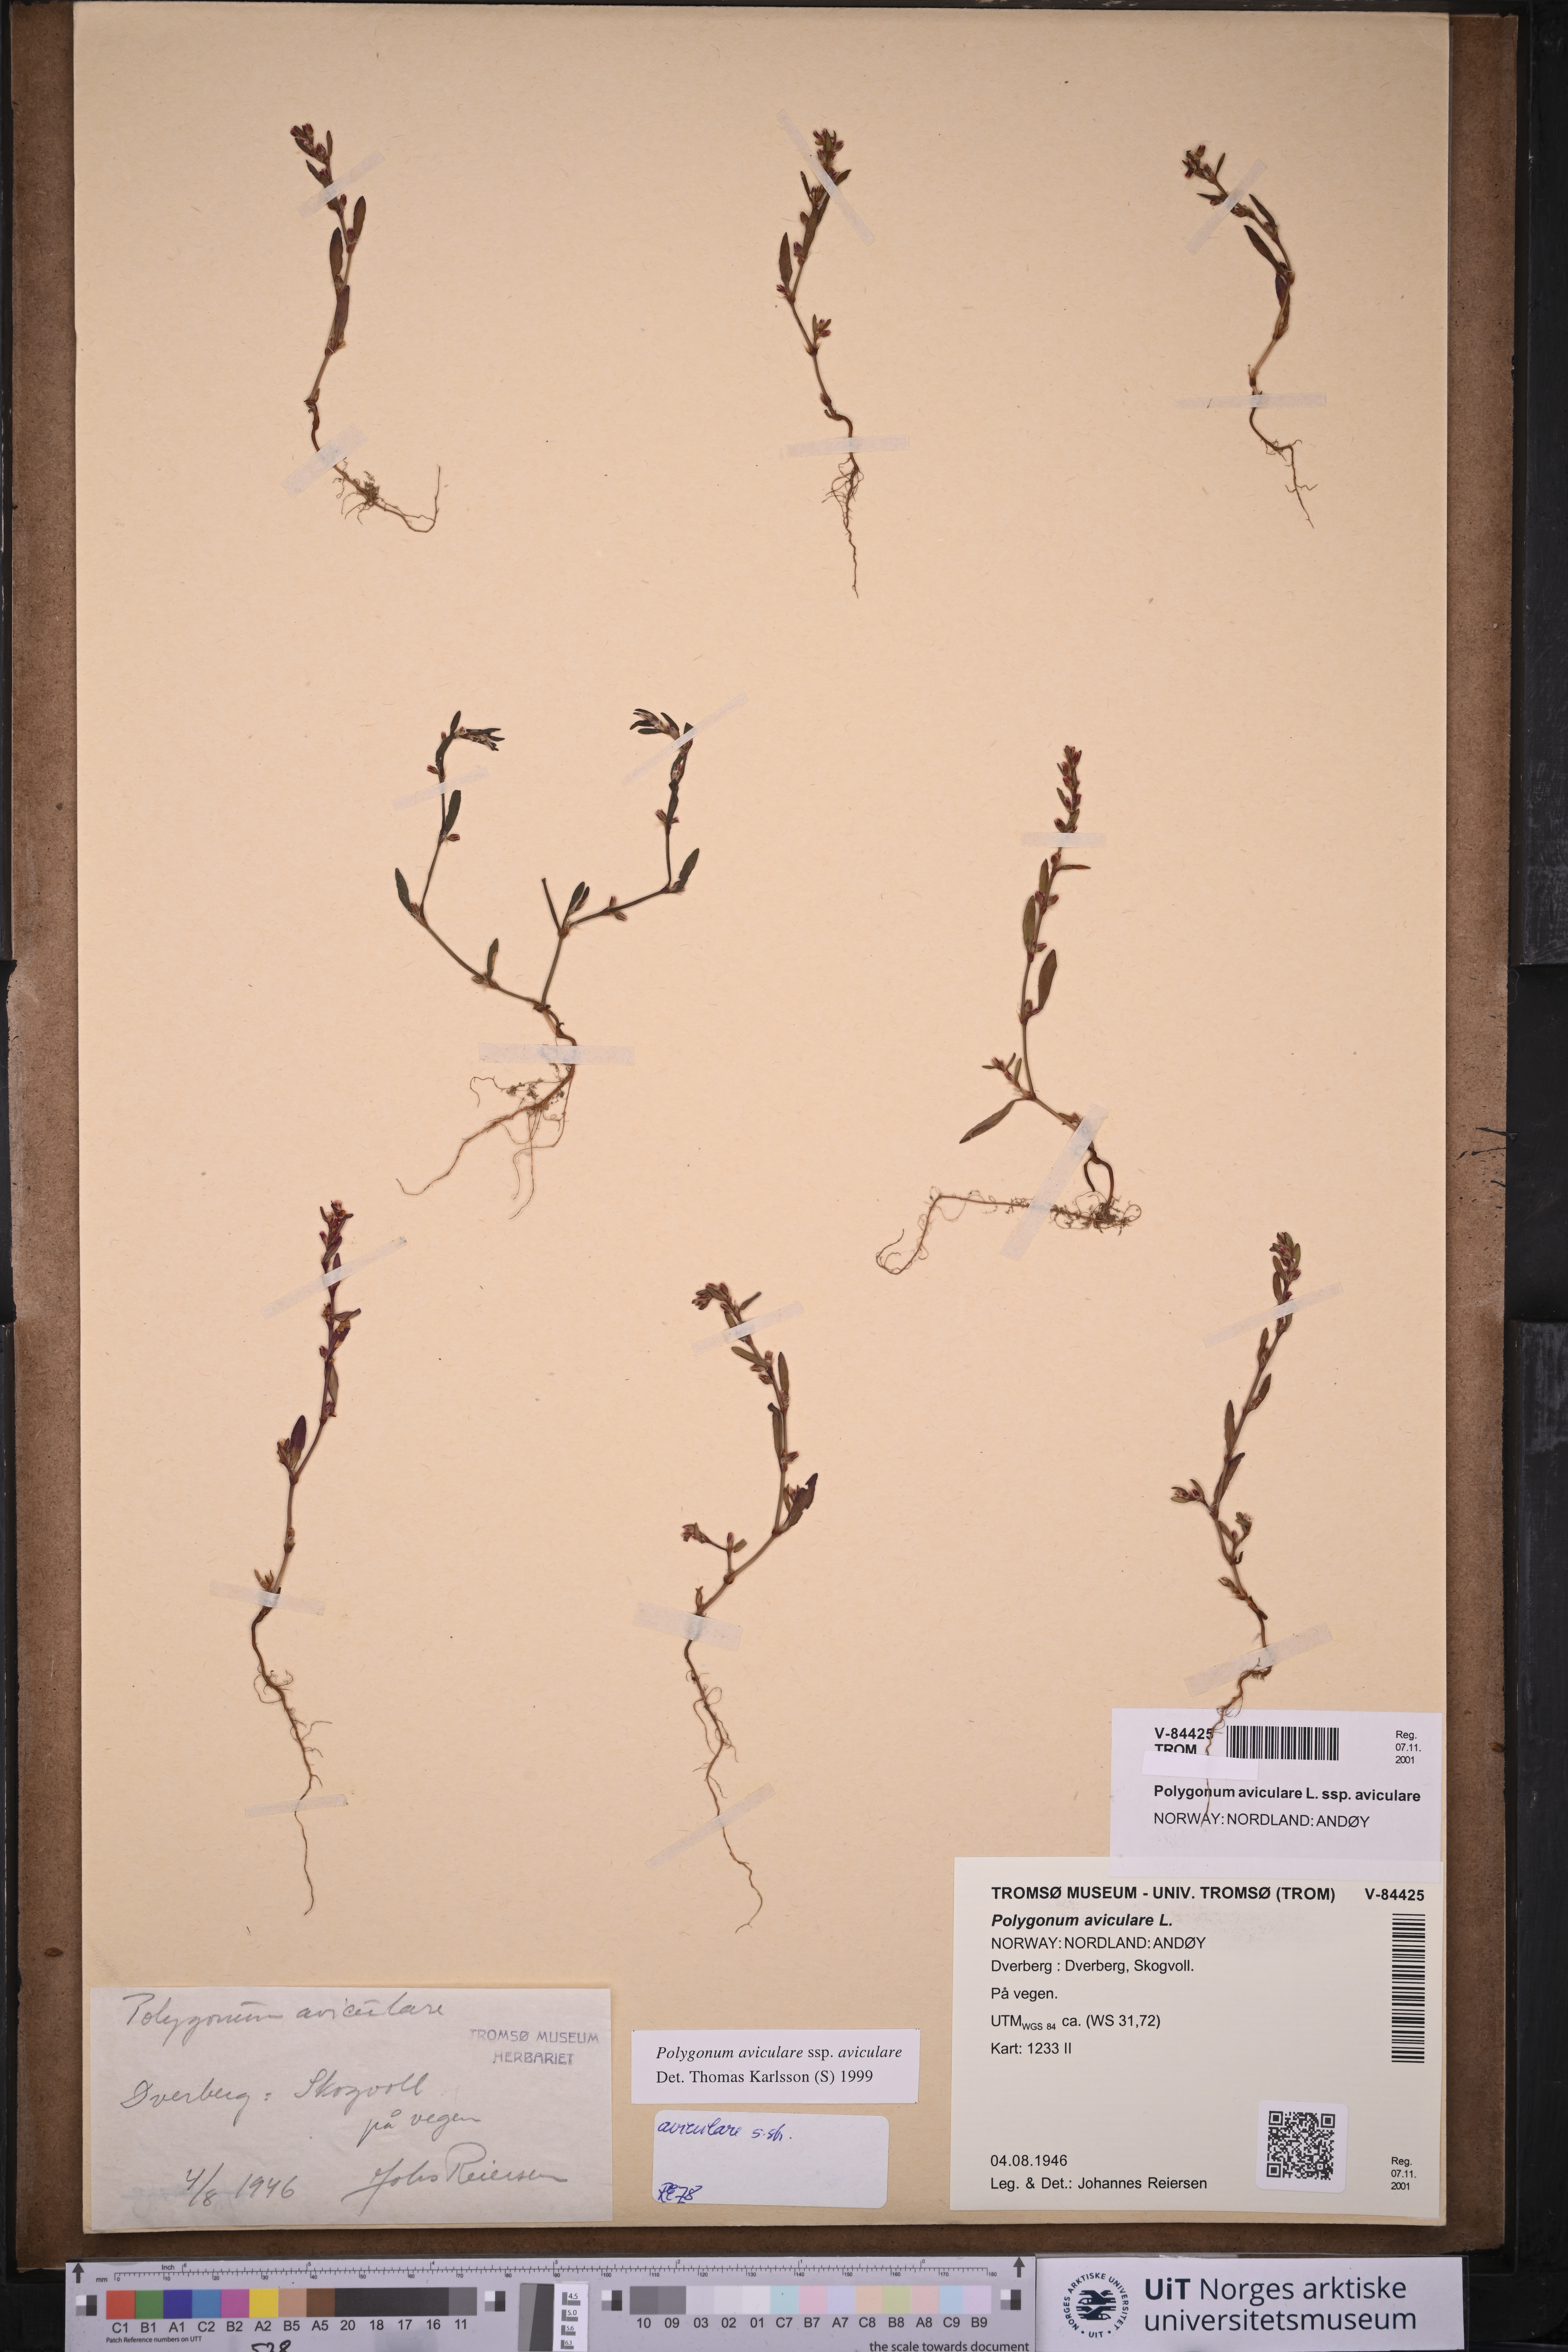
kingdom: Plantae
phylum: Tracheophyta
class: Magnoliopsida
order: Caryophyllales
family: Polygonaceae
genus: Polygonum
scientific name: Polygonum aviculare
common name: Prostrate knotweed
